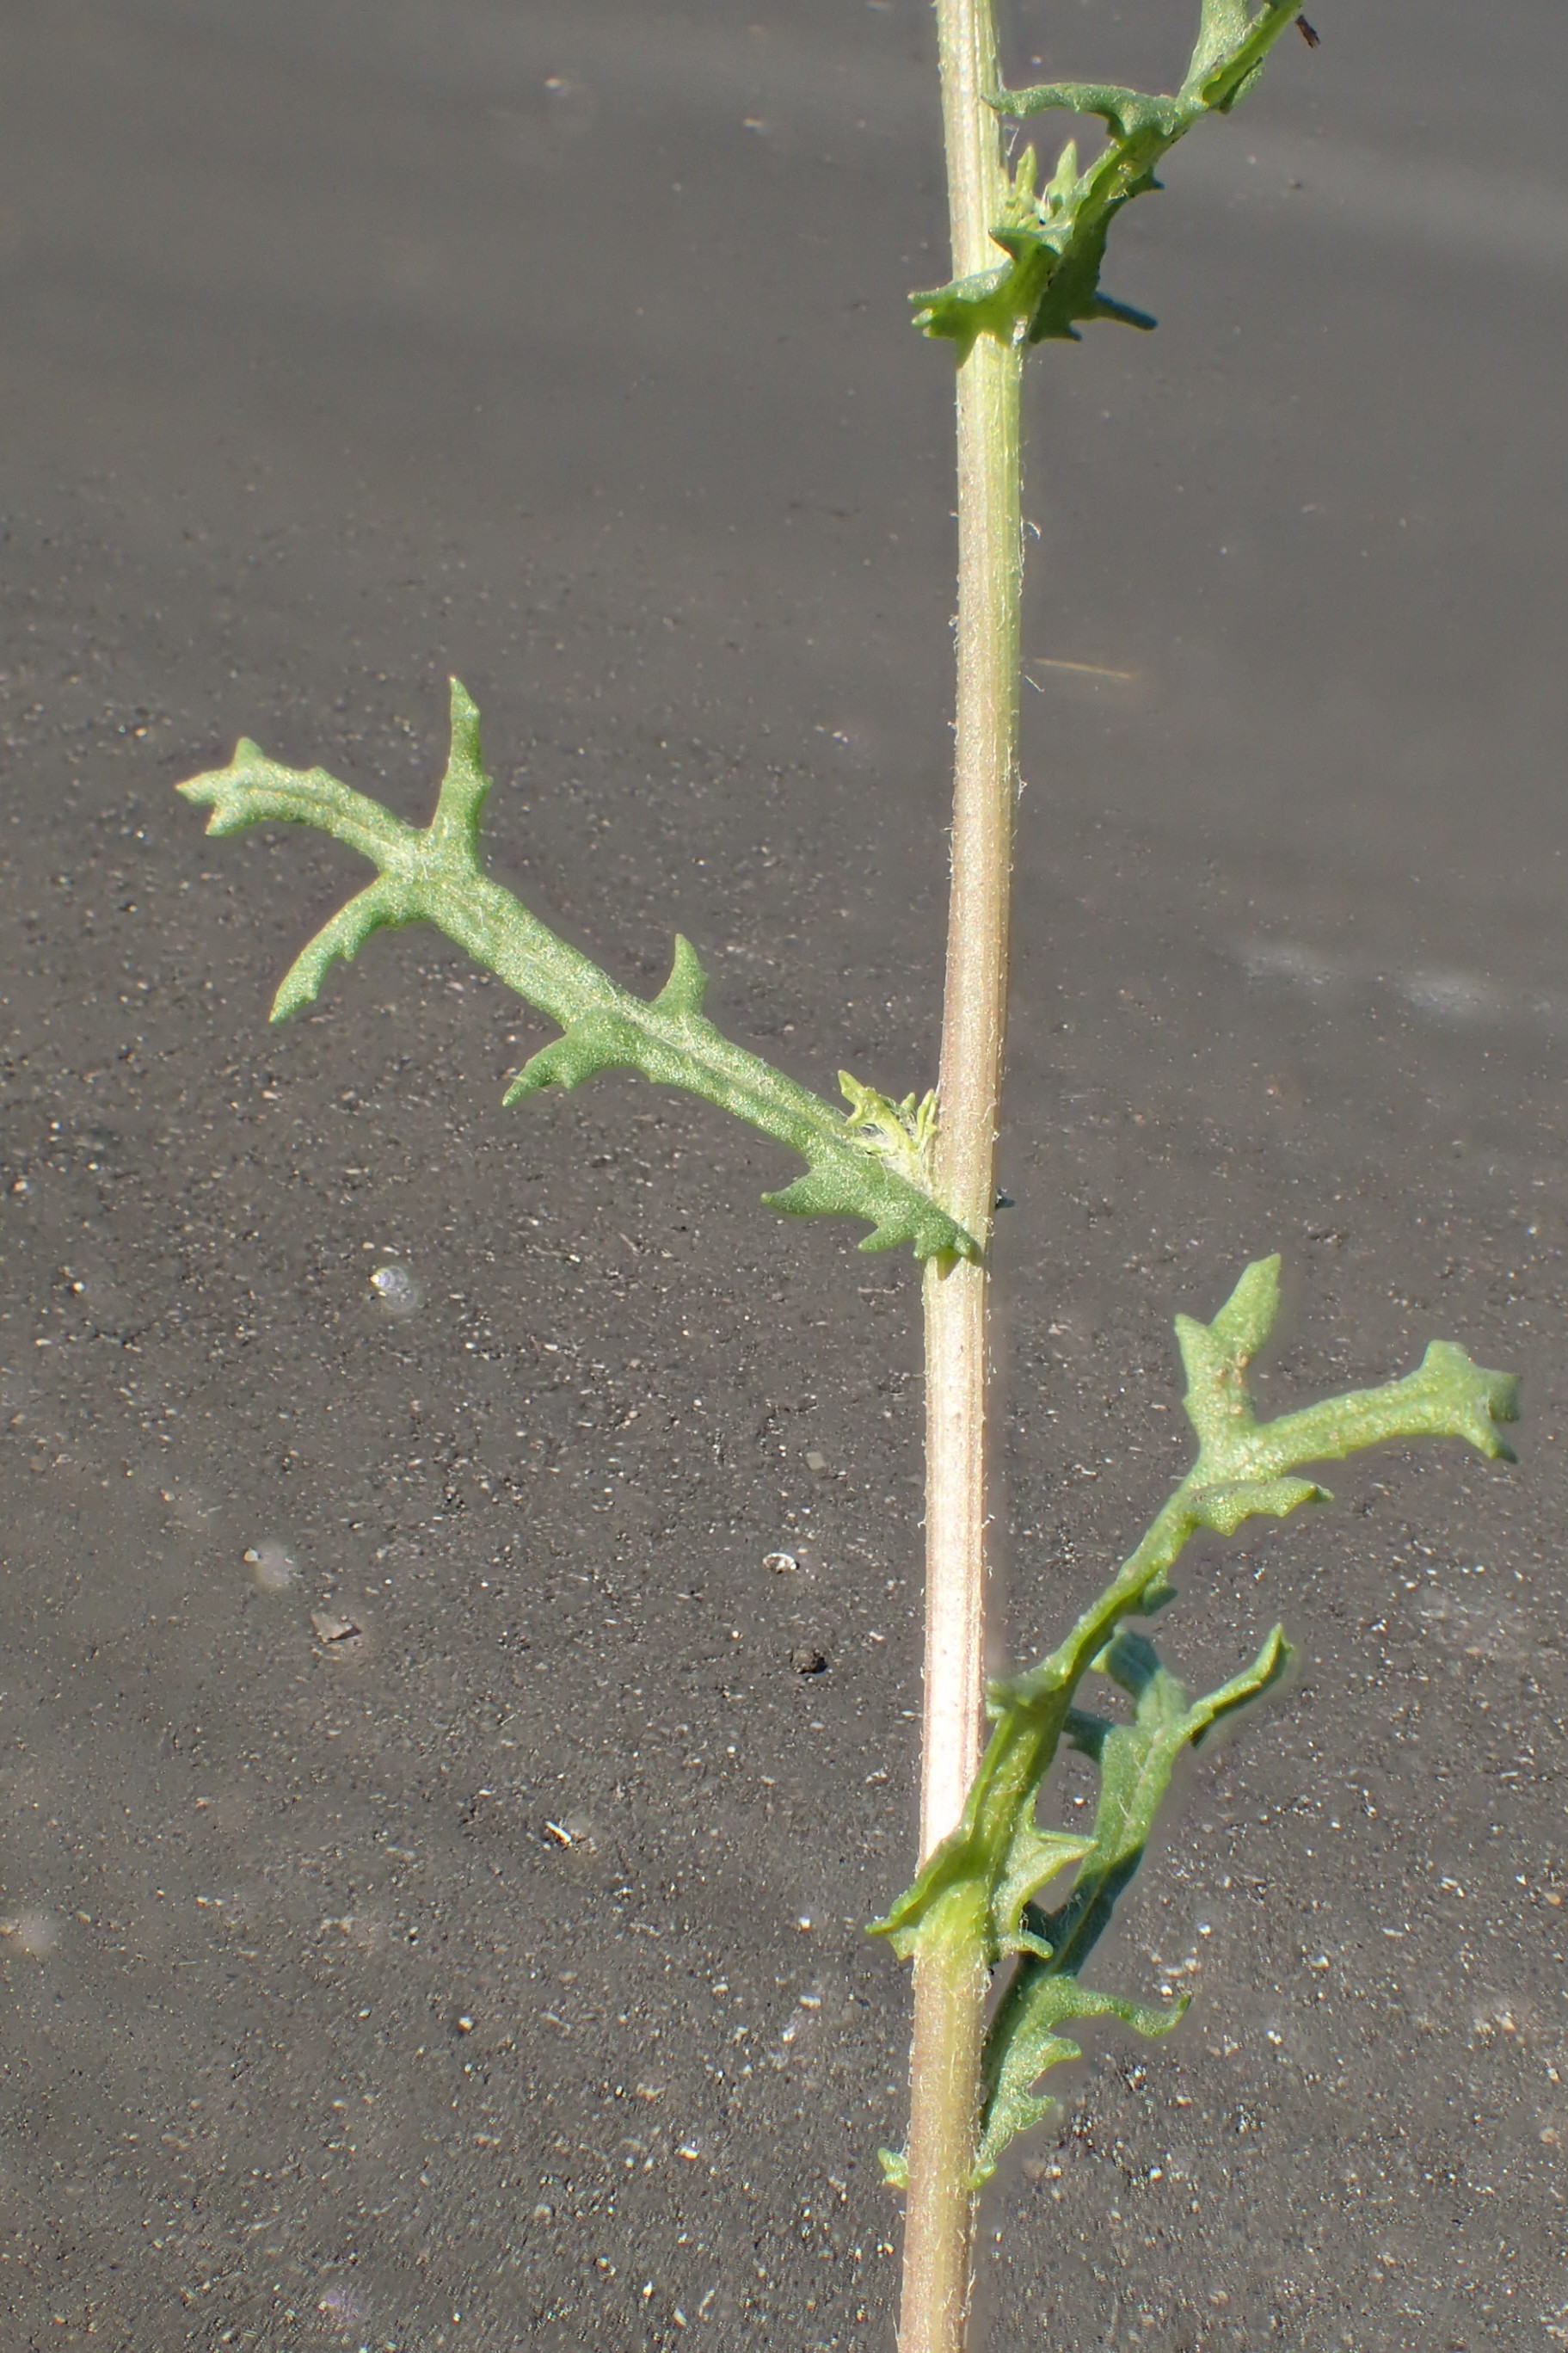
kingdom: Plantae
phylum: Tracheophyta
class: Magnoliopsida
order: Asterales
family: Asteraceae
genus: Senecio
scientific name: Senecio vulgaris
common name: Almindelig brandbæger
